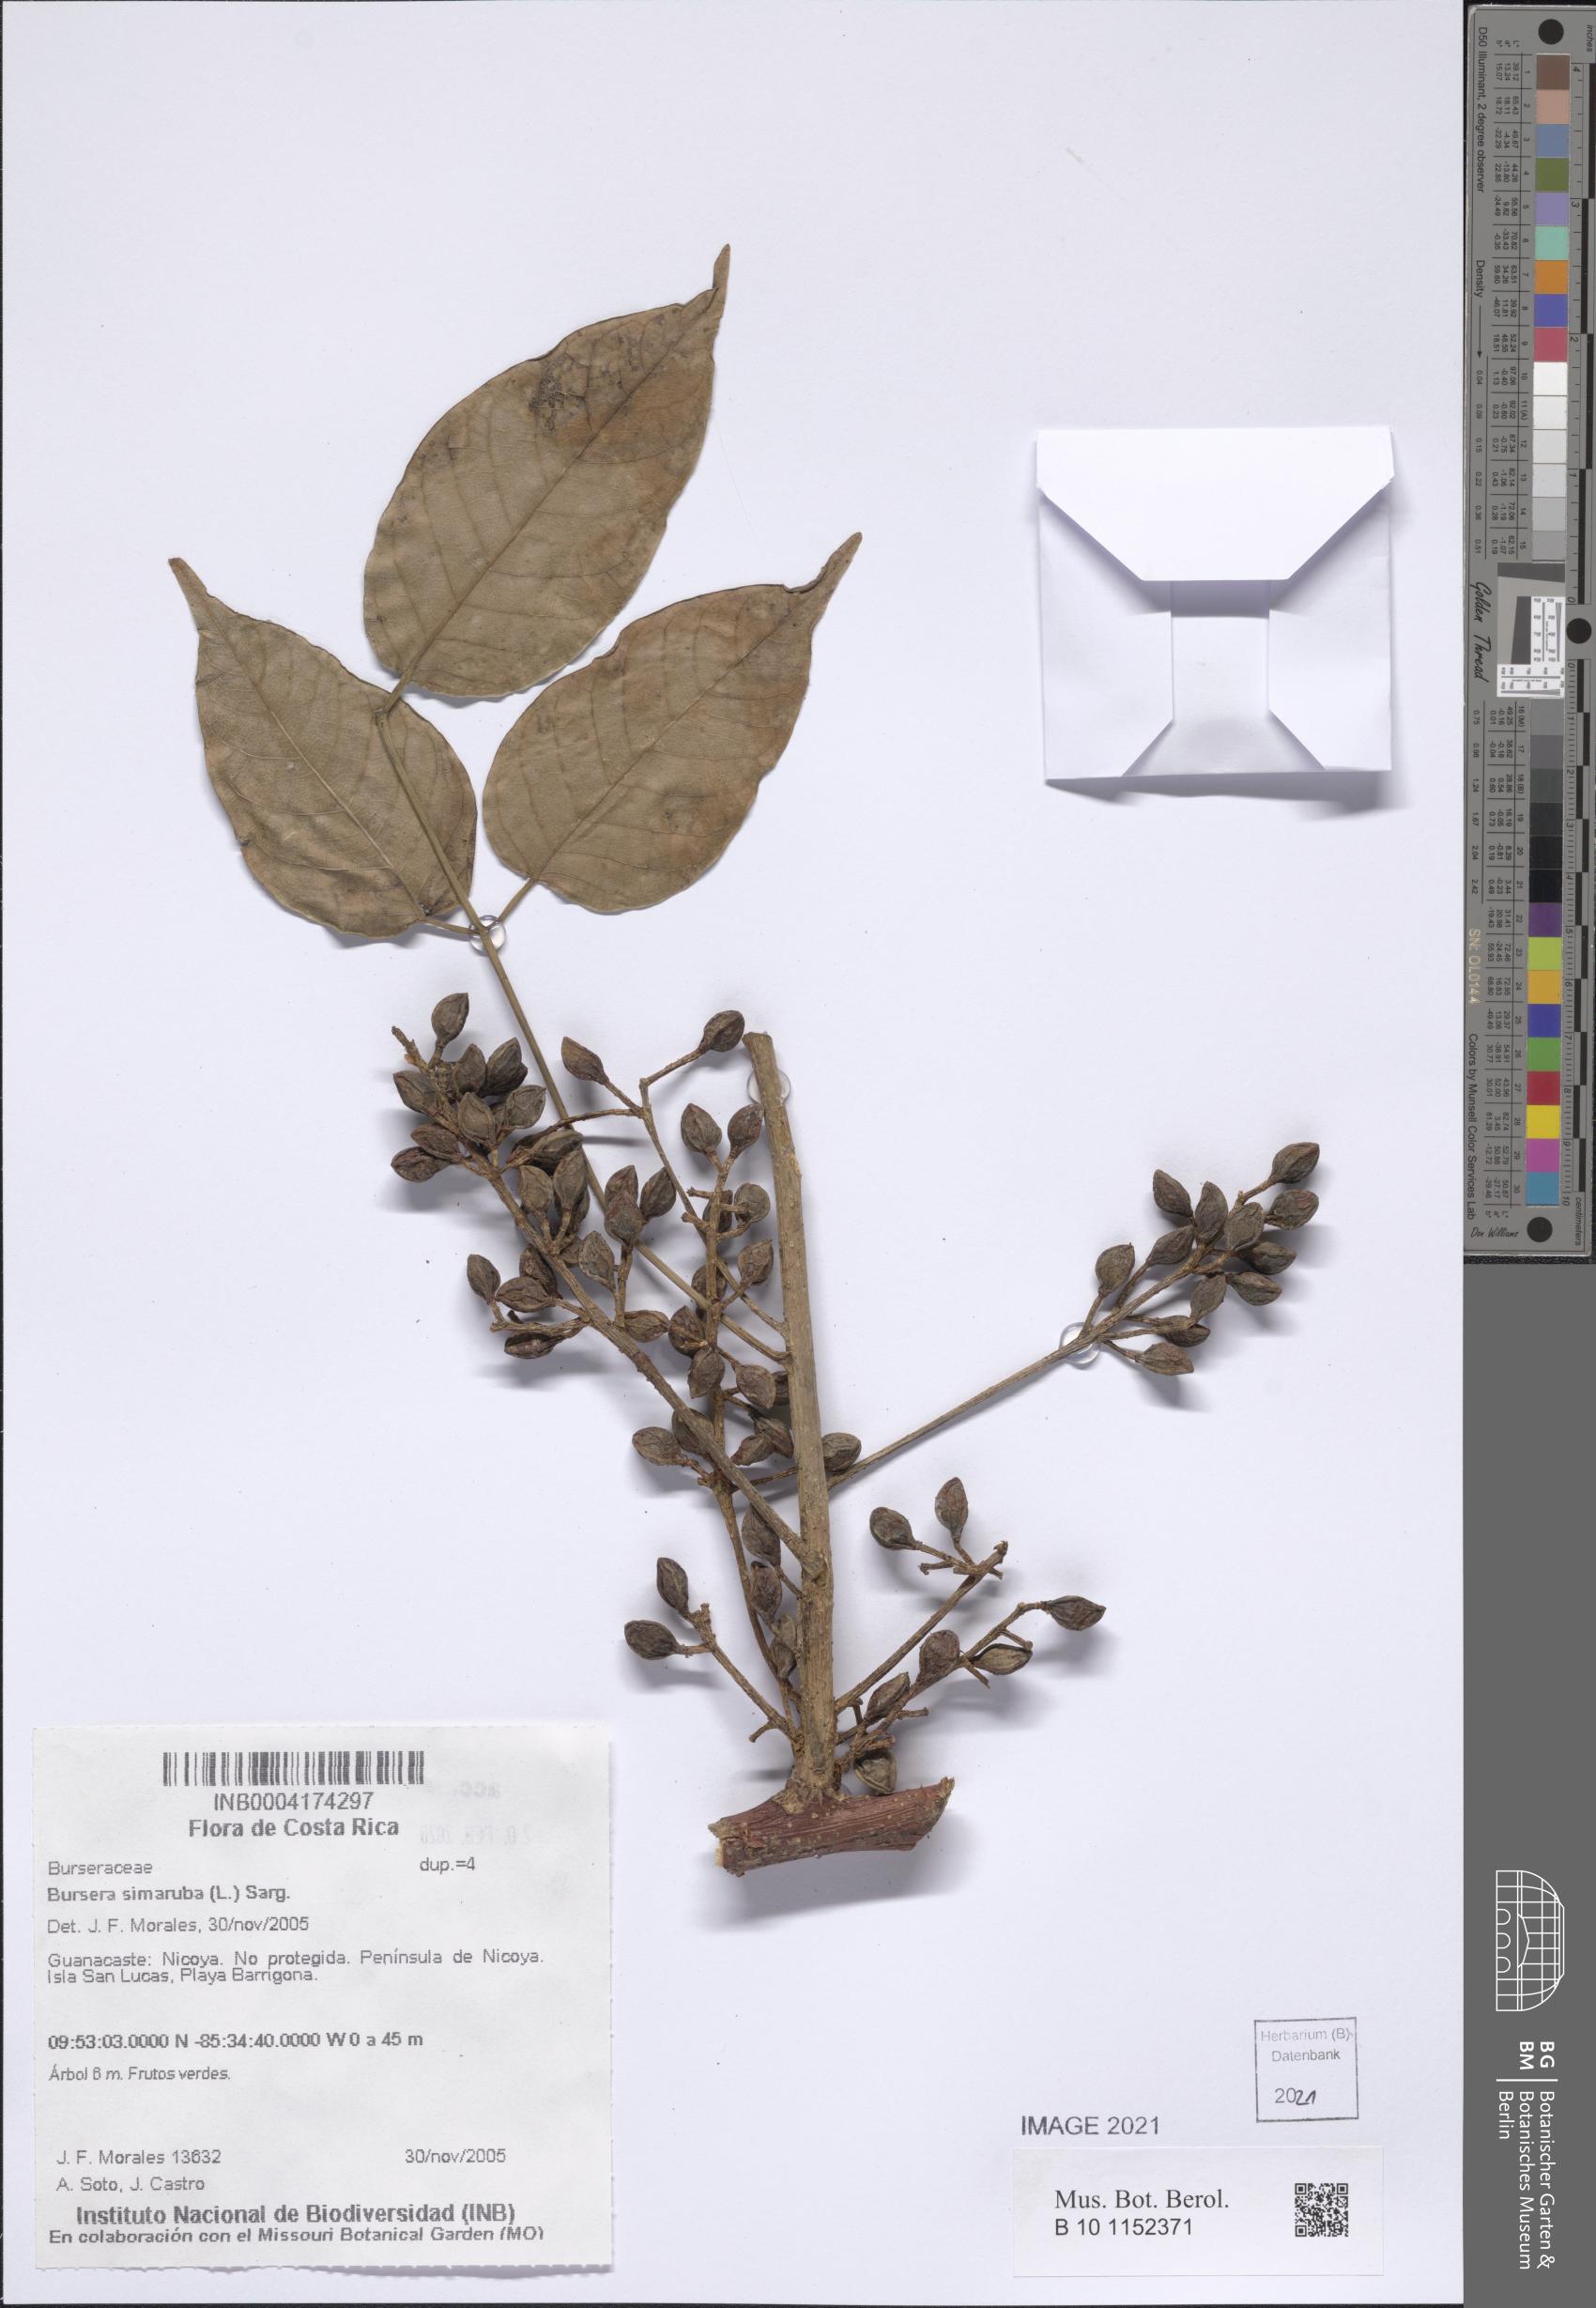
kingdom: Plantae
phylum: Tracheophyta
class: Magnoliopsida
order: Sapindales
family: Burseraceae
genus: Bursera
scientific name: Bursera simaruba
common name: Turpentine tree
